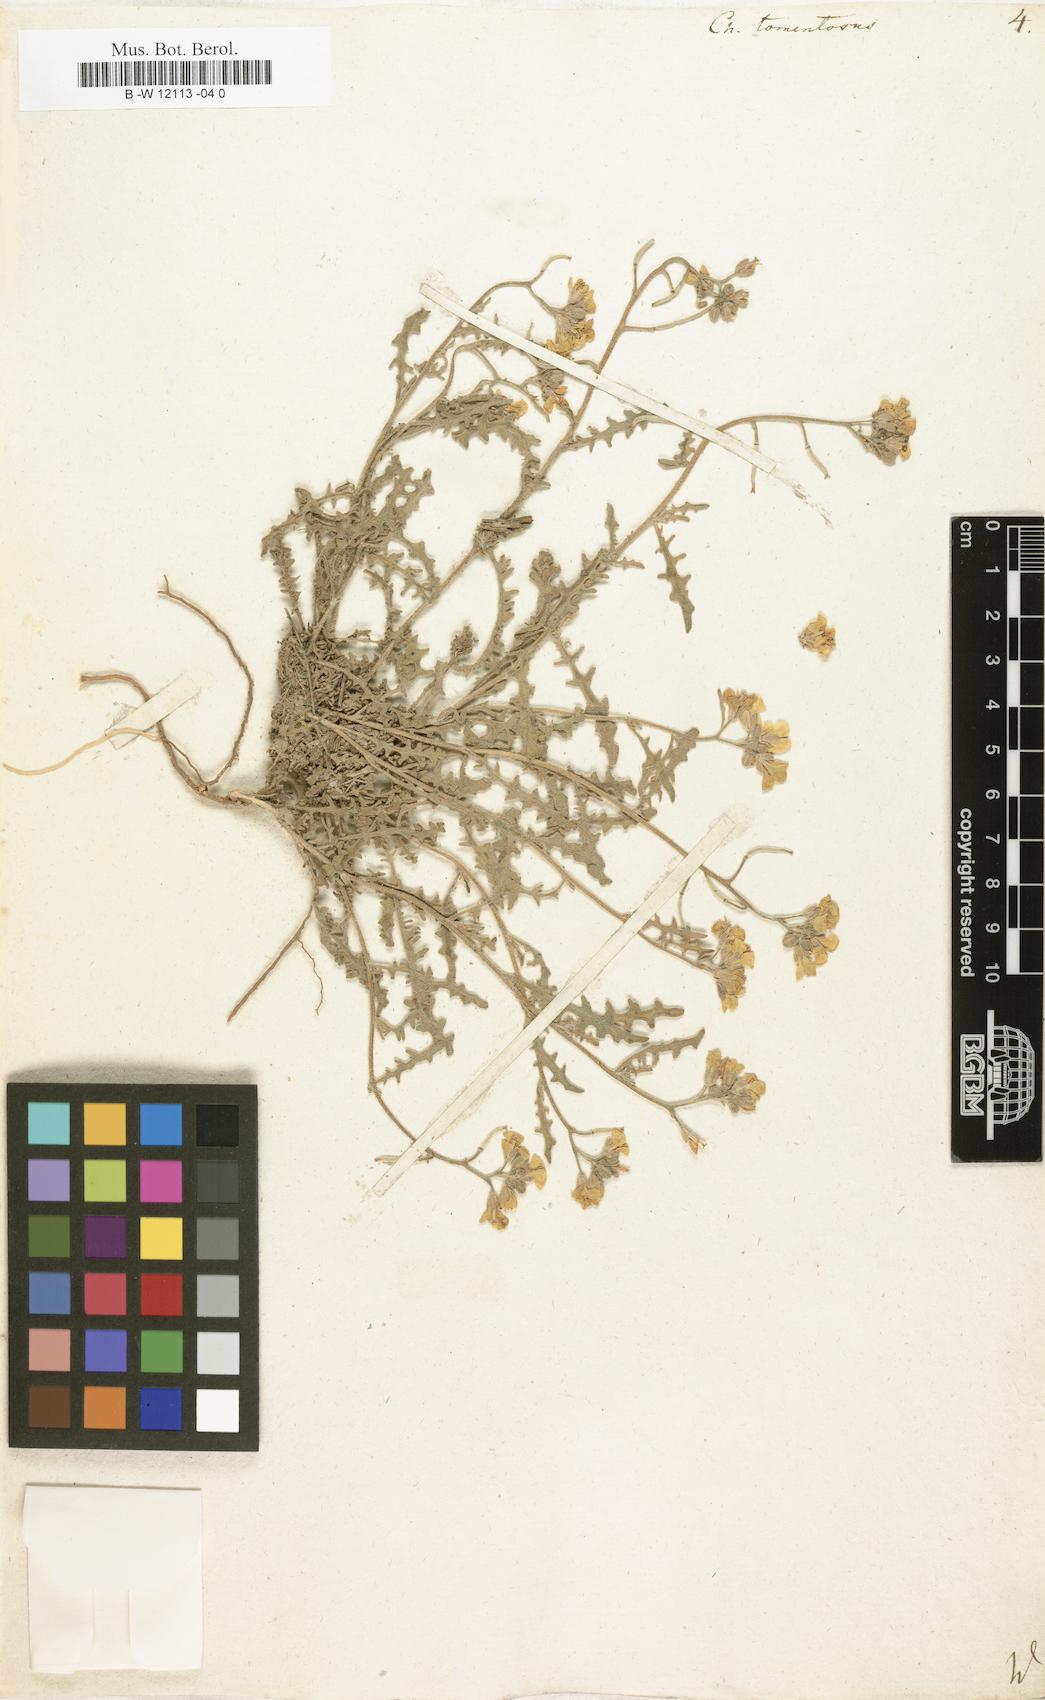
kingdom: Plantae
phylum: Tracheophyta
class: Magnoliopsida
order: Brassicales
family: Brassicaceae
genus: Sterigmostemum
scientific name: Sterigmostemum caspicum
